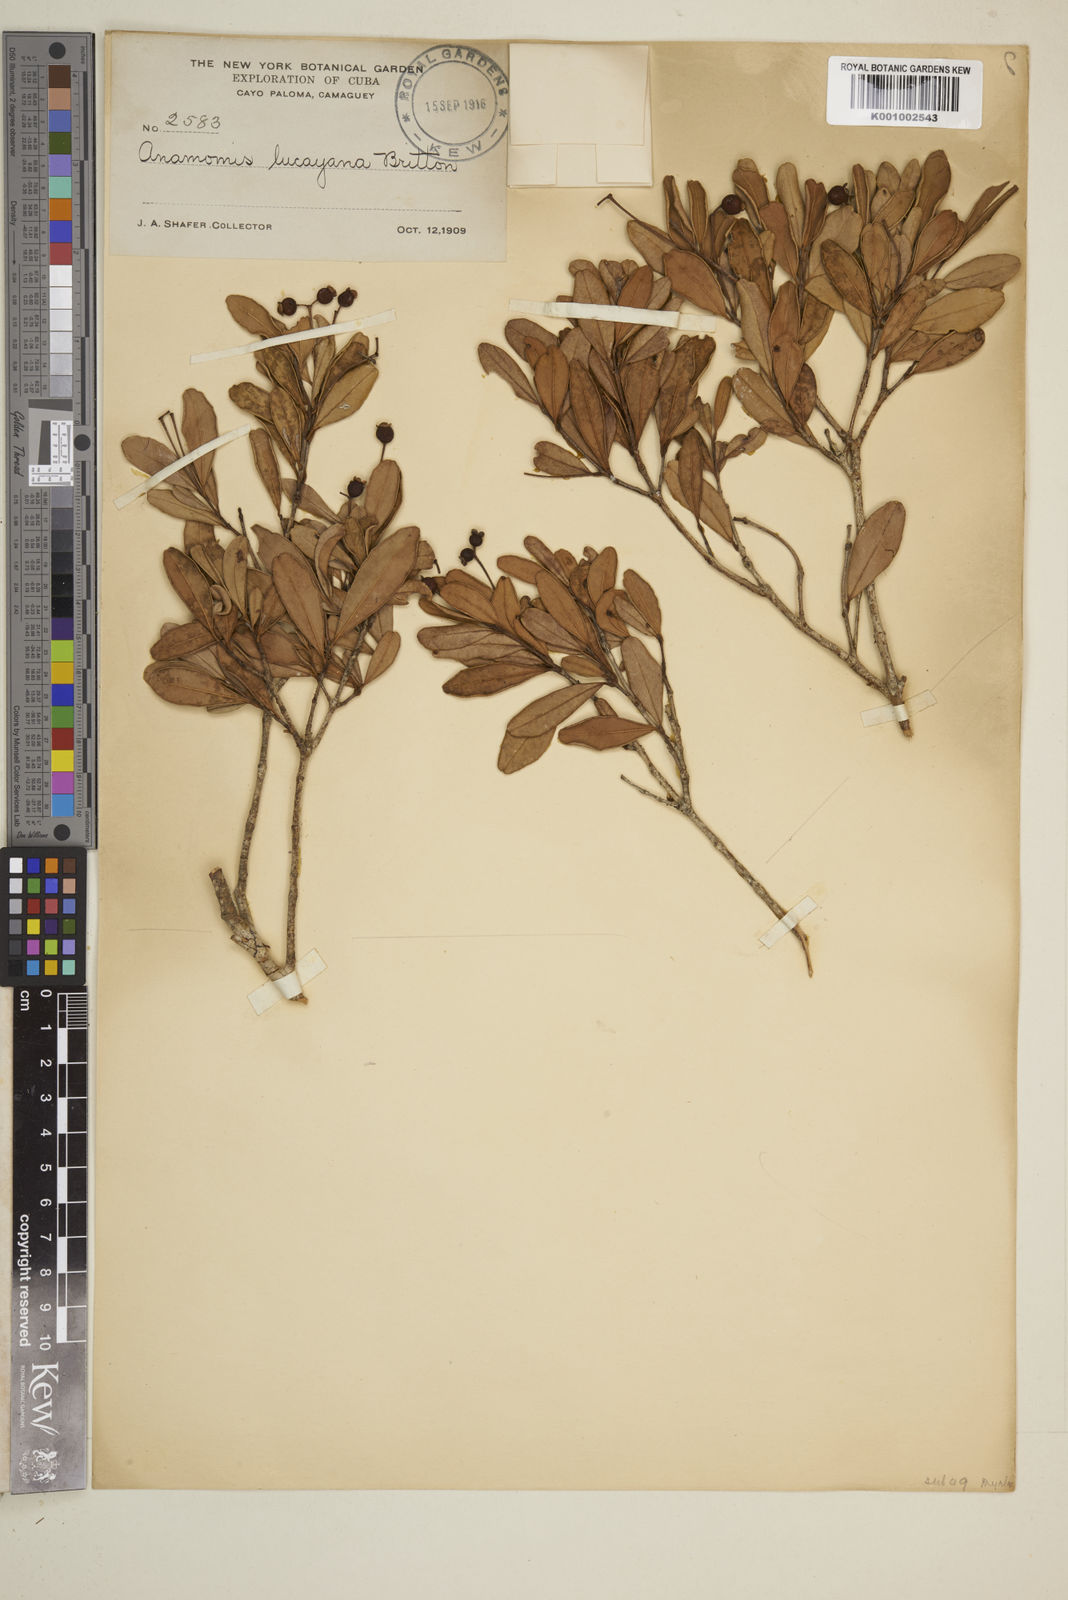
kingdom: Plantae
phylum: Tracheophyta
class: Magnoliopsida
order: Myrtales
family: Myrtaceae
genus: Myrcianthes
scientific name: Myrcianthes fragrans
